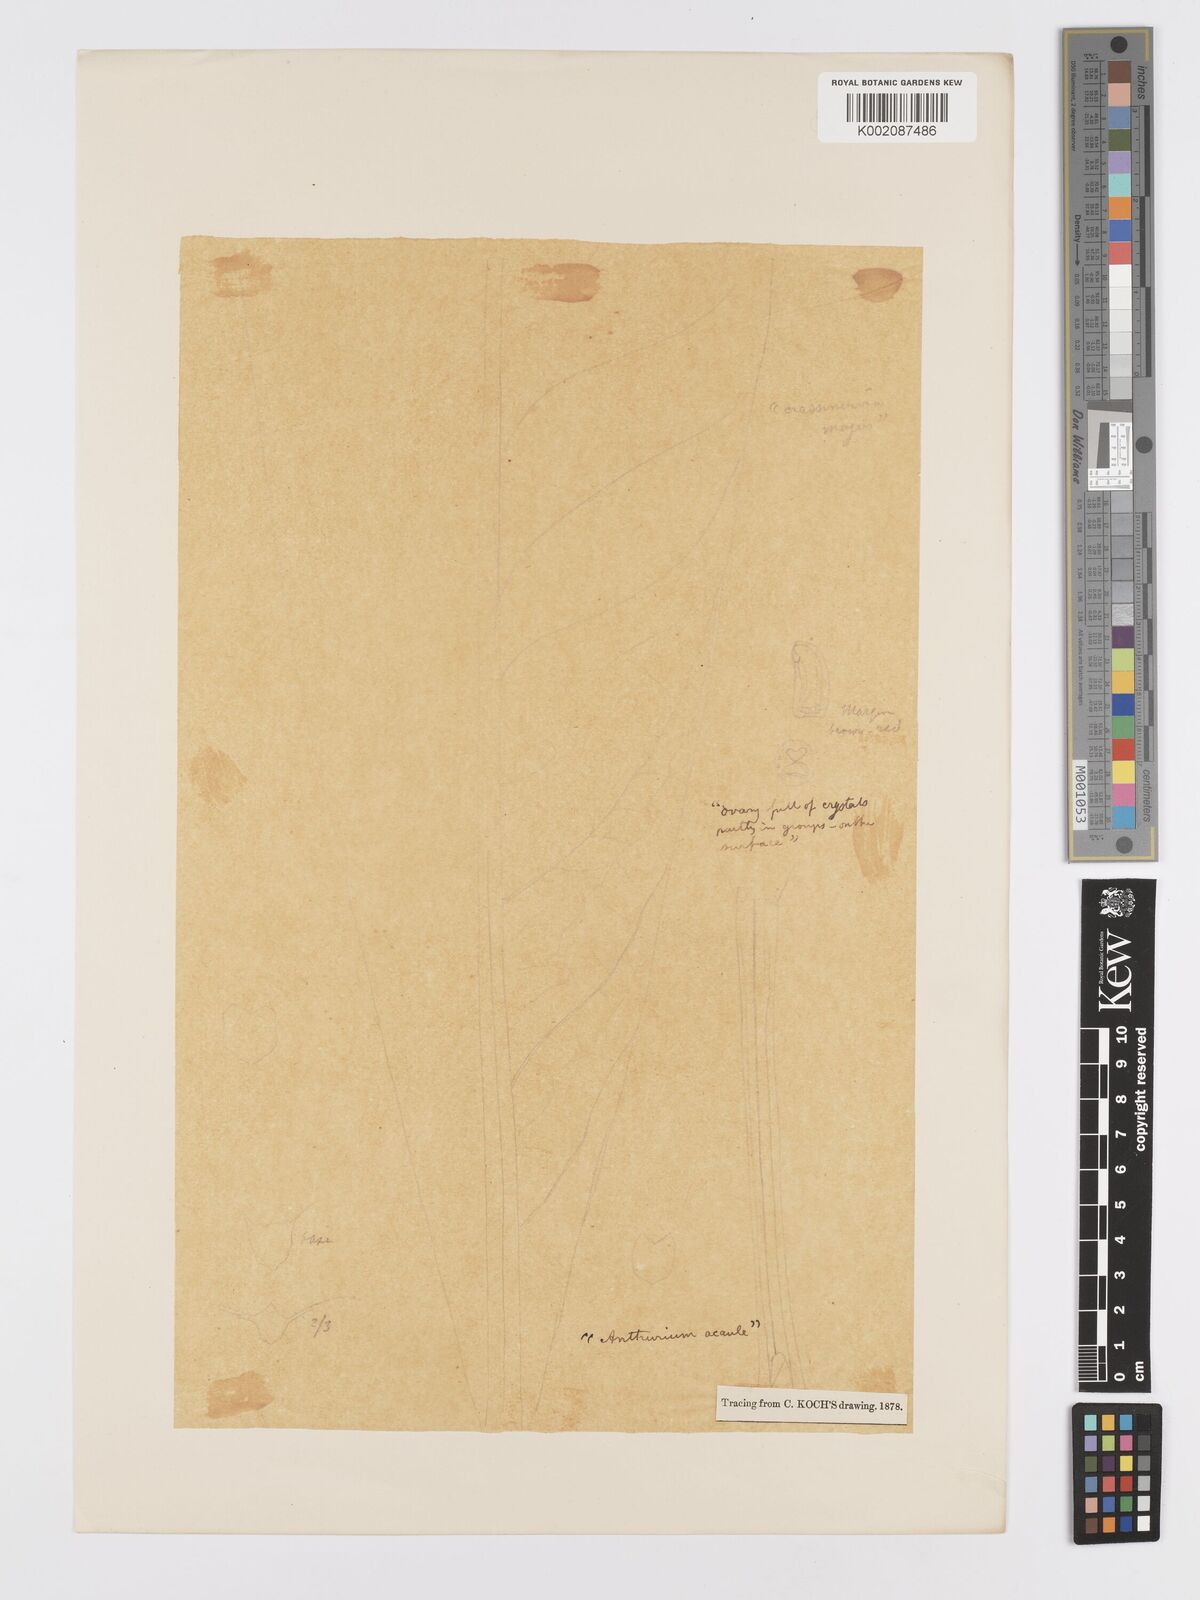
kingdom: Plantae
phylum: Tracheophyta
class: Liliopsida
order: Alismatales
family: Araceae
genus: Anthurium
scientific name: Anthurium crassinervium
